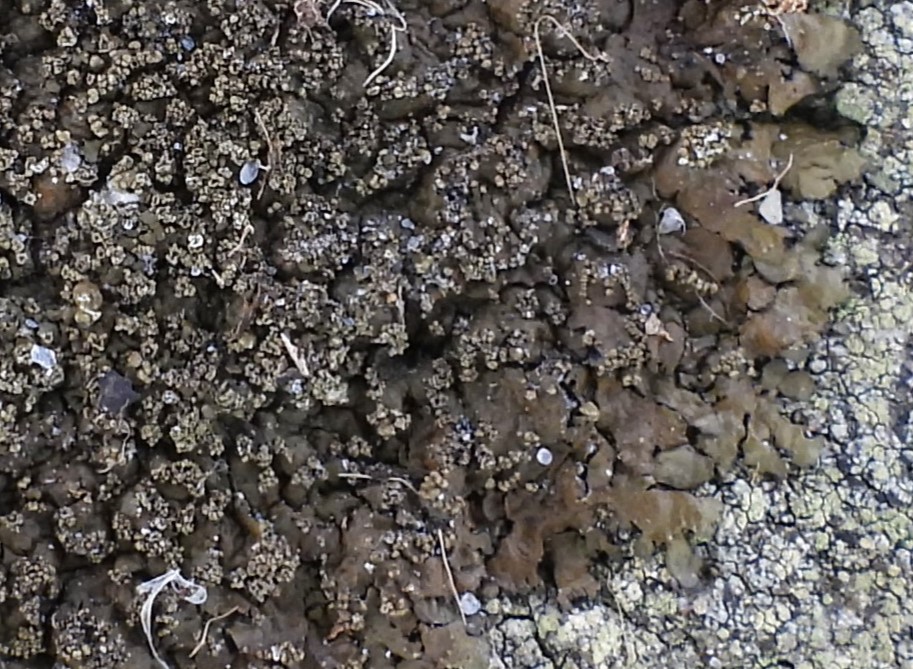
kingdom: Fungi
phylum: Ascomycota
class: Lecanoromycetes
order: Lecanorales
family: Parmeliaceae
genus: Xanthoparmelia
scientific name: Xanthoparmelia verruculifera
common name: småknoppet skållav
